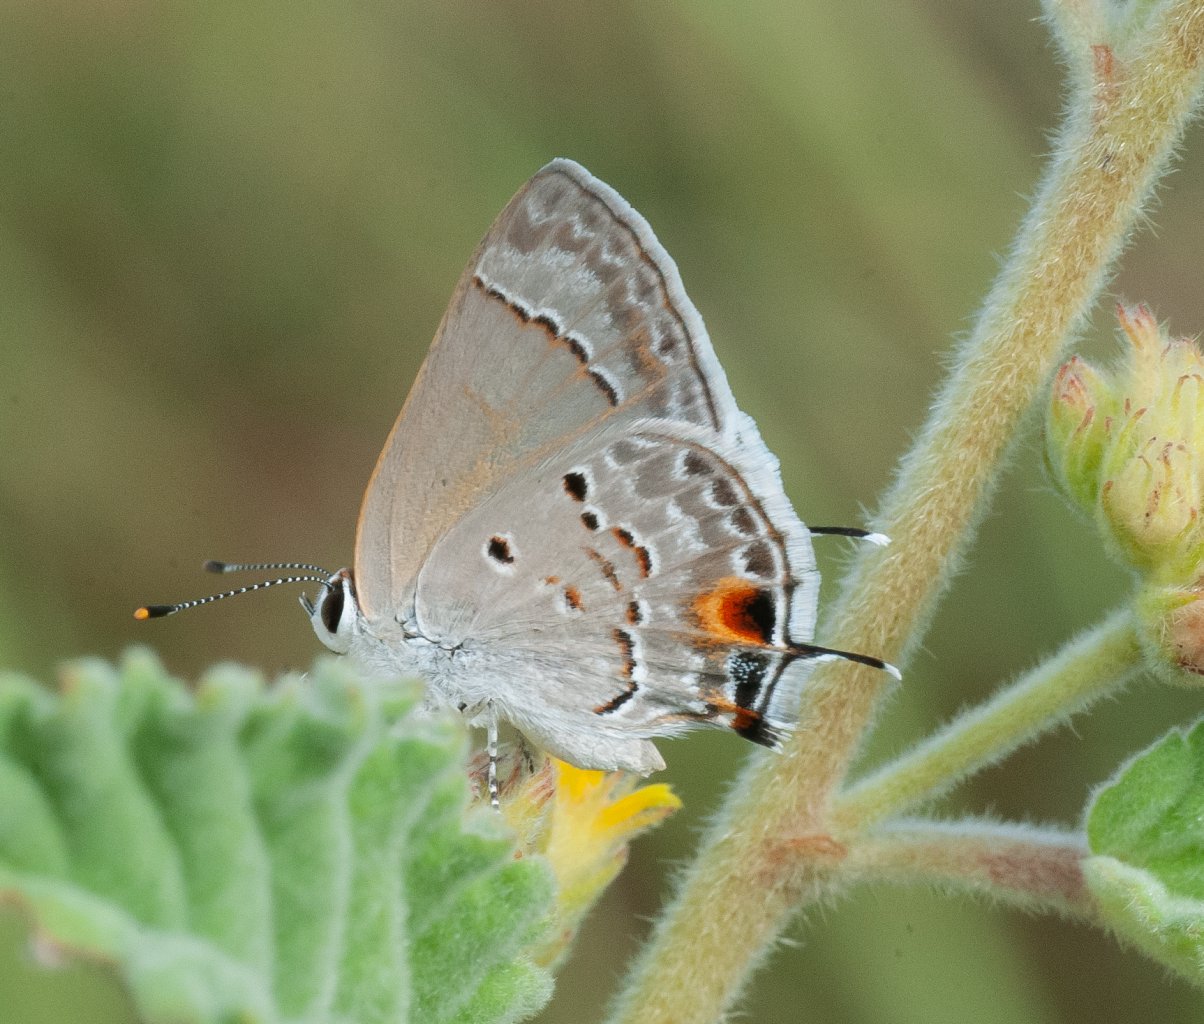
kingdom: Animalia
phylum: Arthropoda
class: Insecta
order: Lepidoptera
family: Lycaenidae
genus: Callicista
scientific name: Callicista columella
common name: Mallow Scrub-Hairstreak
